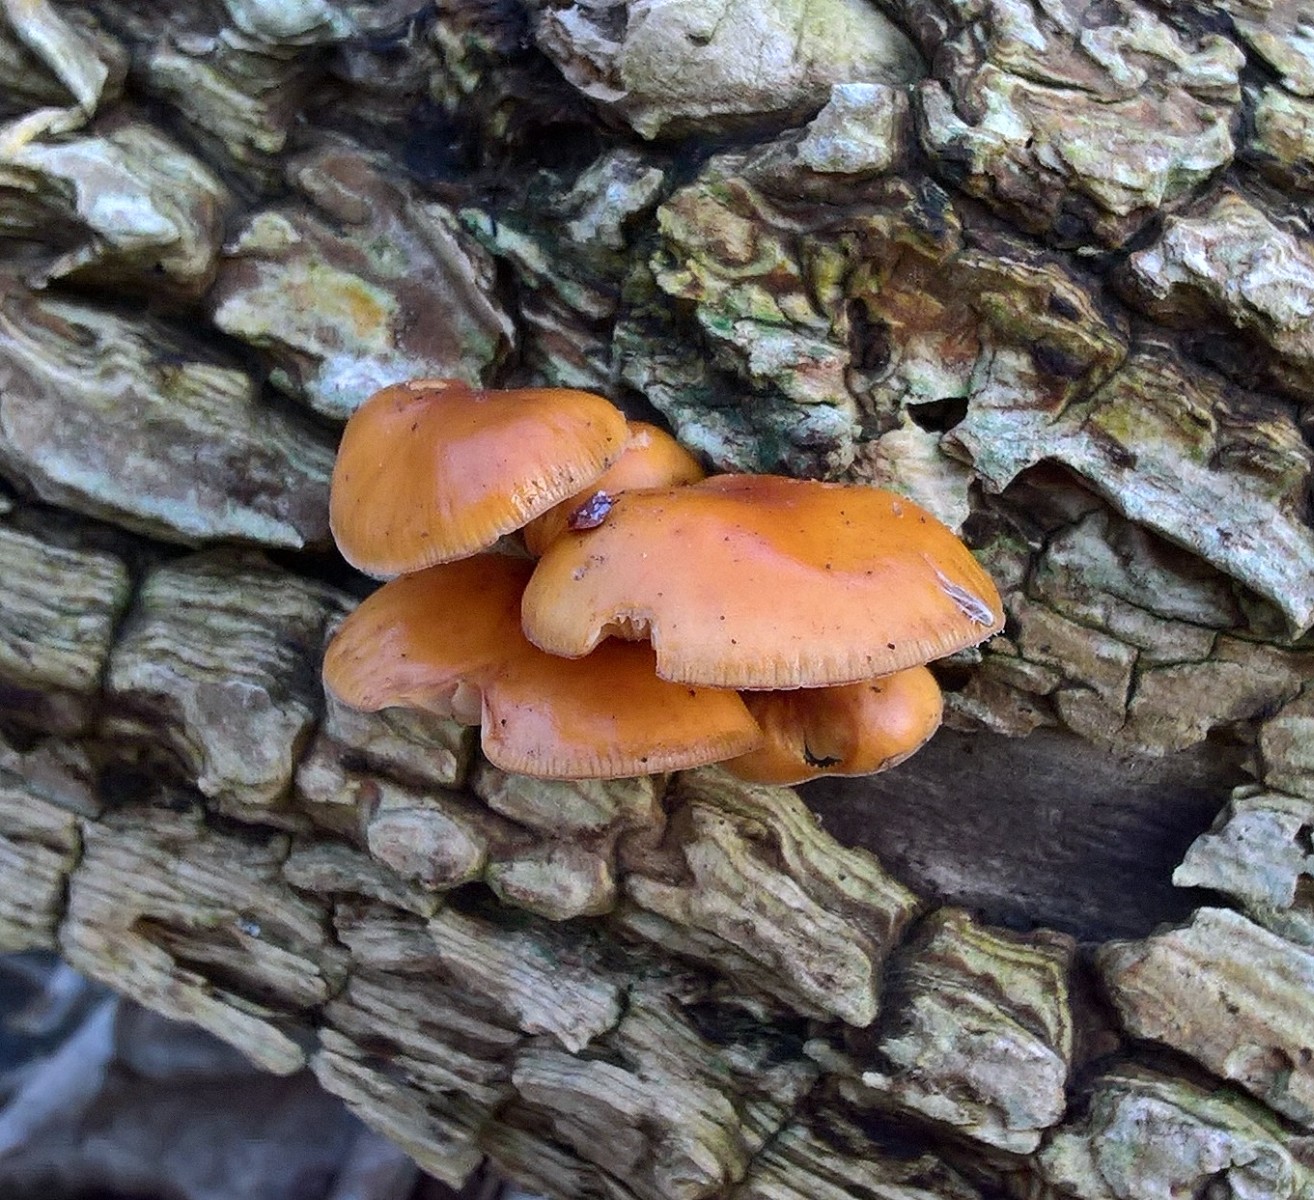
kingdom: Fungi
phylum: Basidiomycota
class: Agaricomycetes
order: Agaricales
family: Physalacriaceae
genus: Flammulina
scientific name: Flammulina velutipes
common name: gul fløjlsfod
